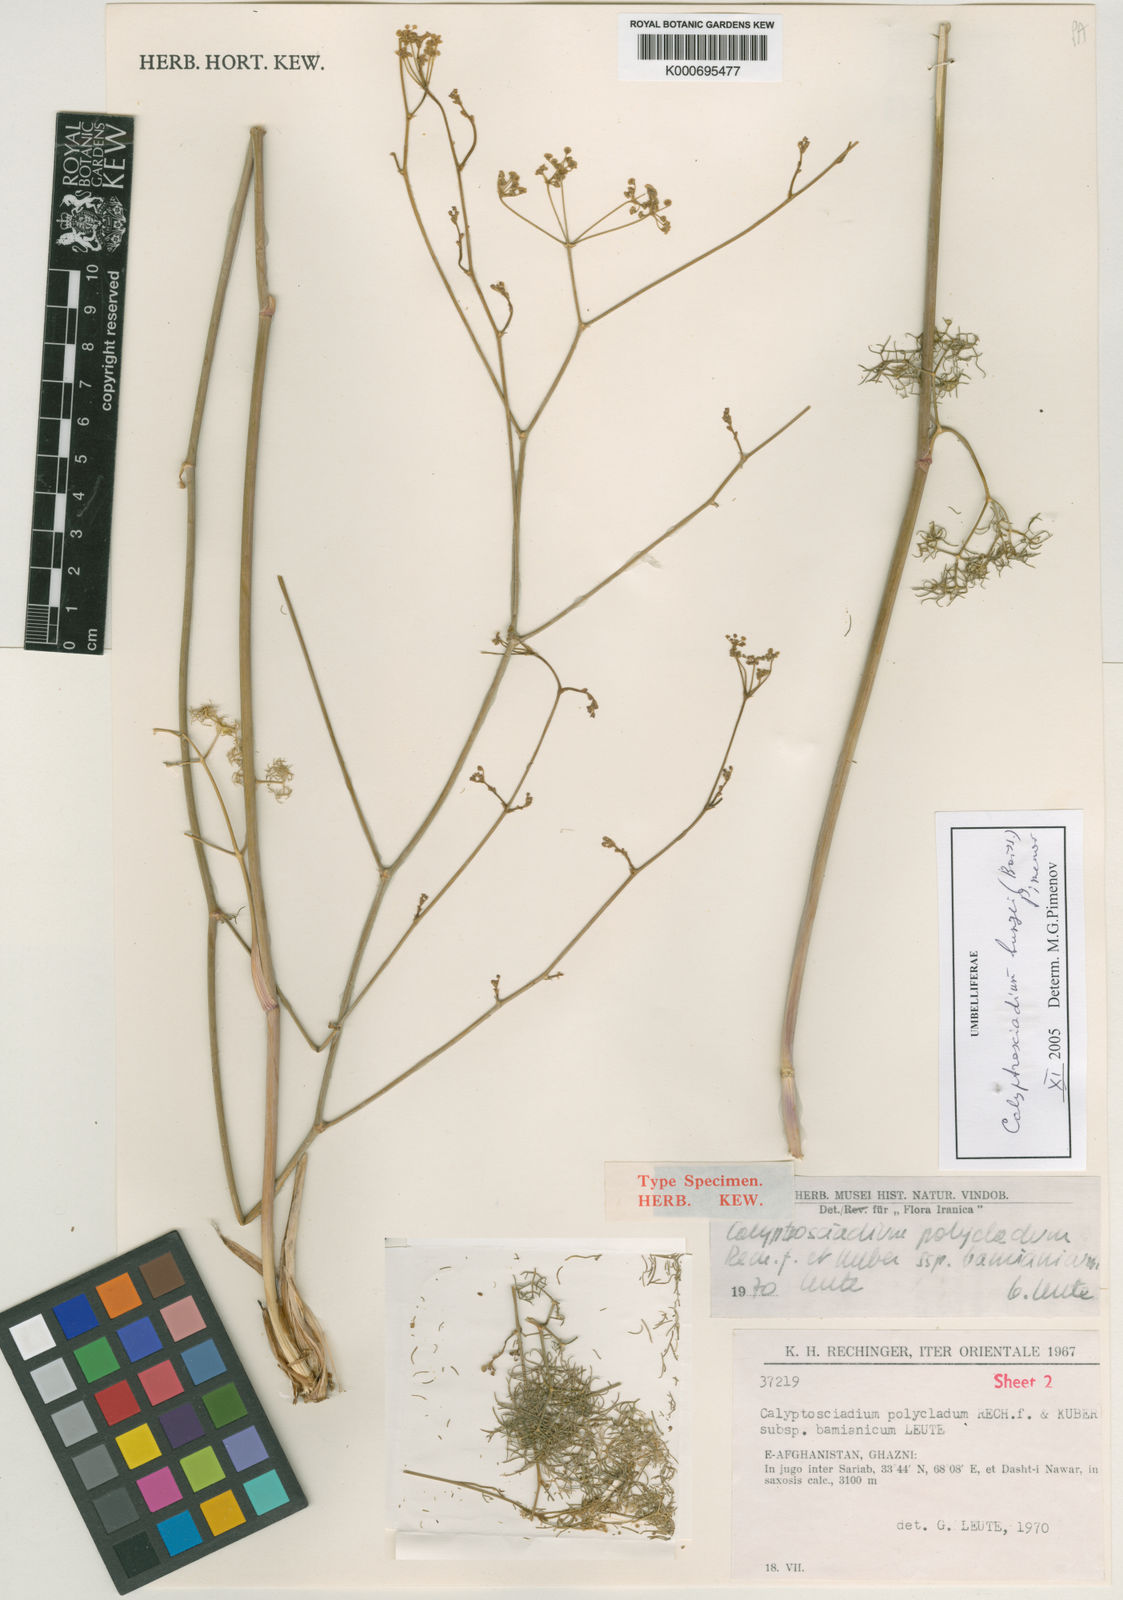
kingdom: Plantae
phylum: Tracheophyta
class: Magnoliopsida
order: Apiales
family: Apiaceae
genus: Calyptrosciadium
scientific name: Calyptrosciadium bungei
